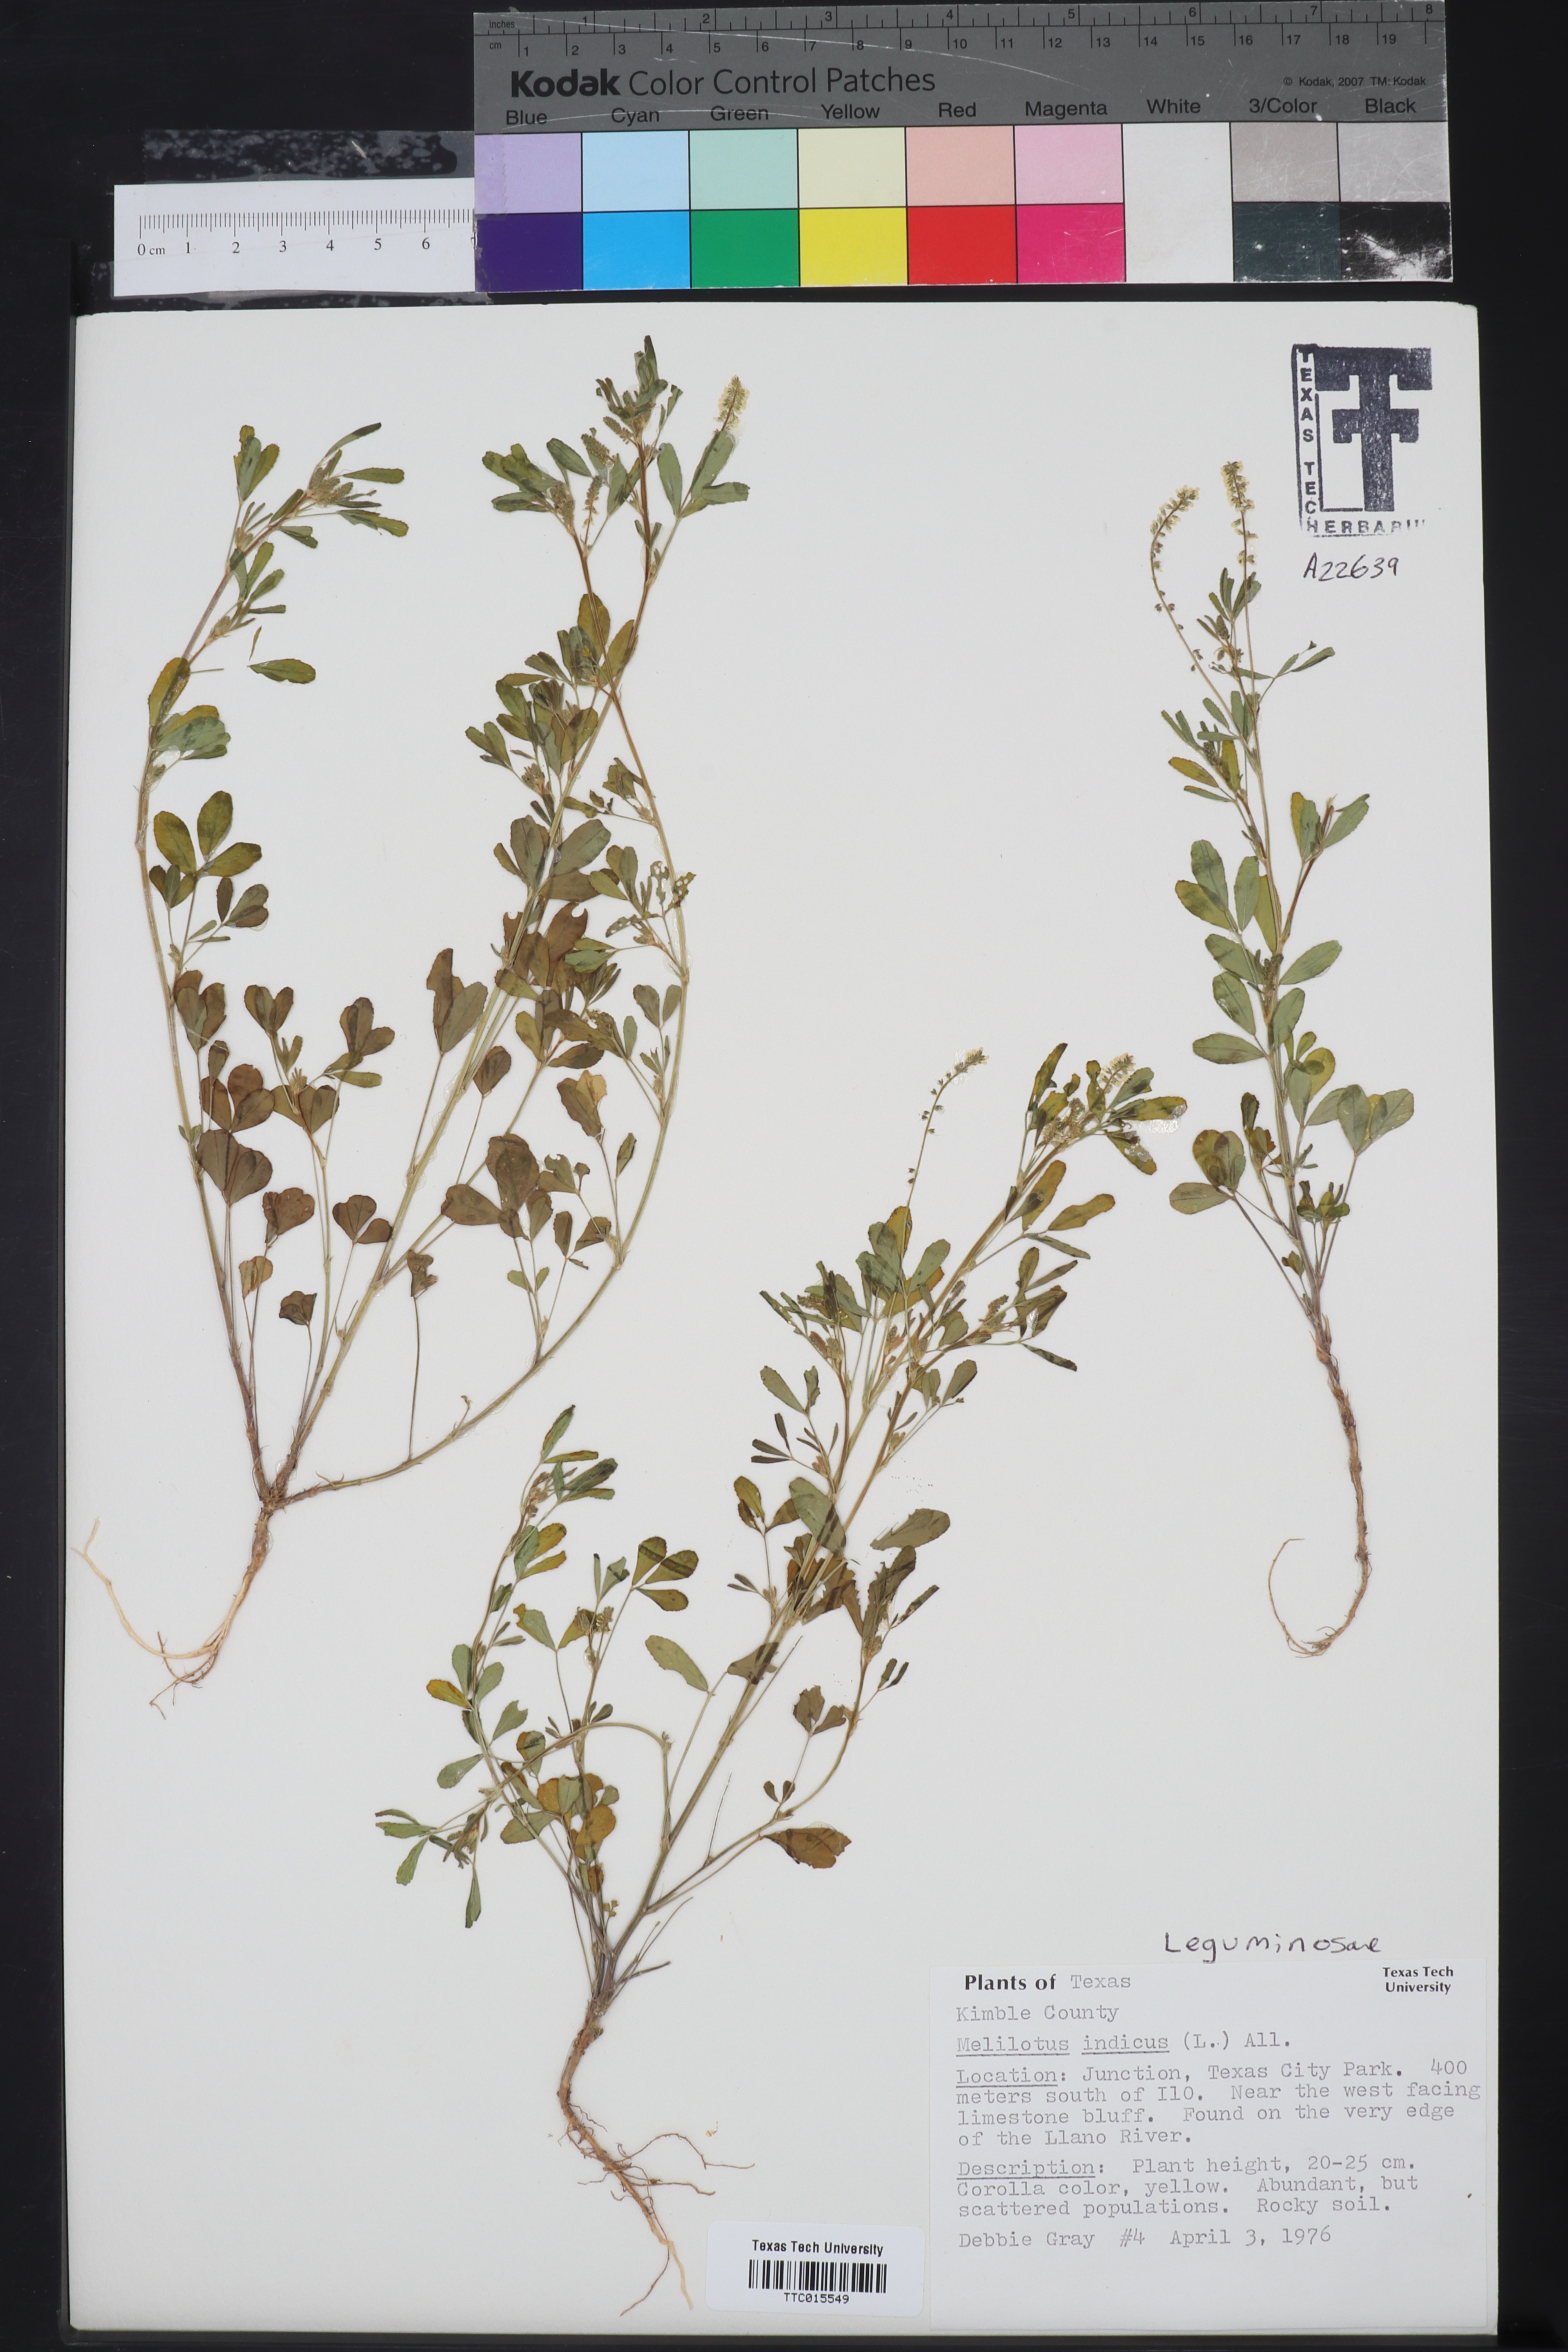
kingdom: Plantae
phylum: Tracheophyta
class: Magnoliopsida
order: Fabales
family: Fabaceae
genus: Melilotus
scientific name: Melilotus indicus
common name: Small melilot
